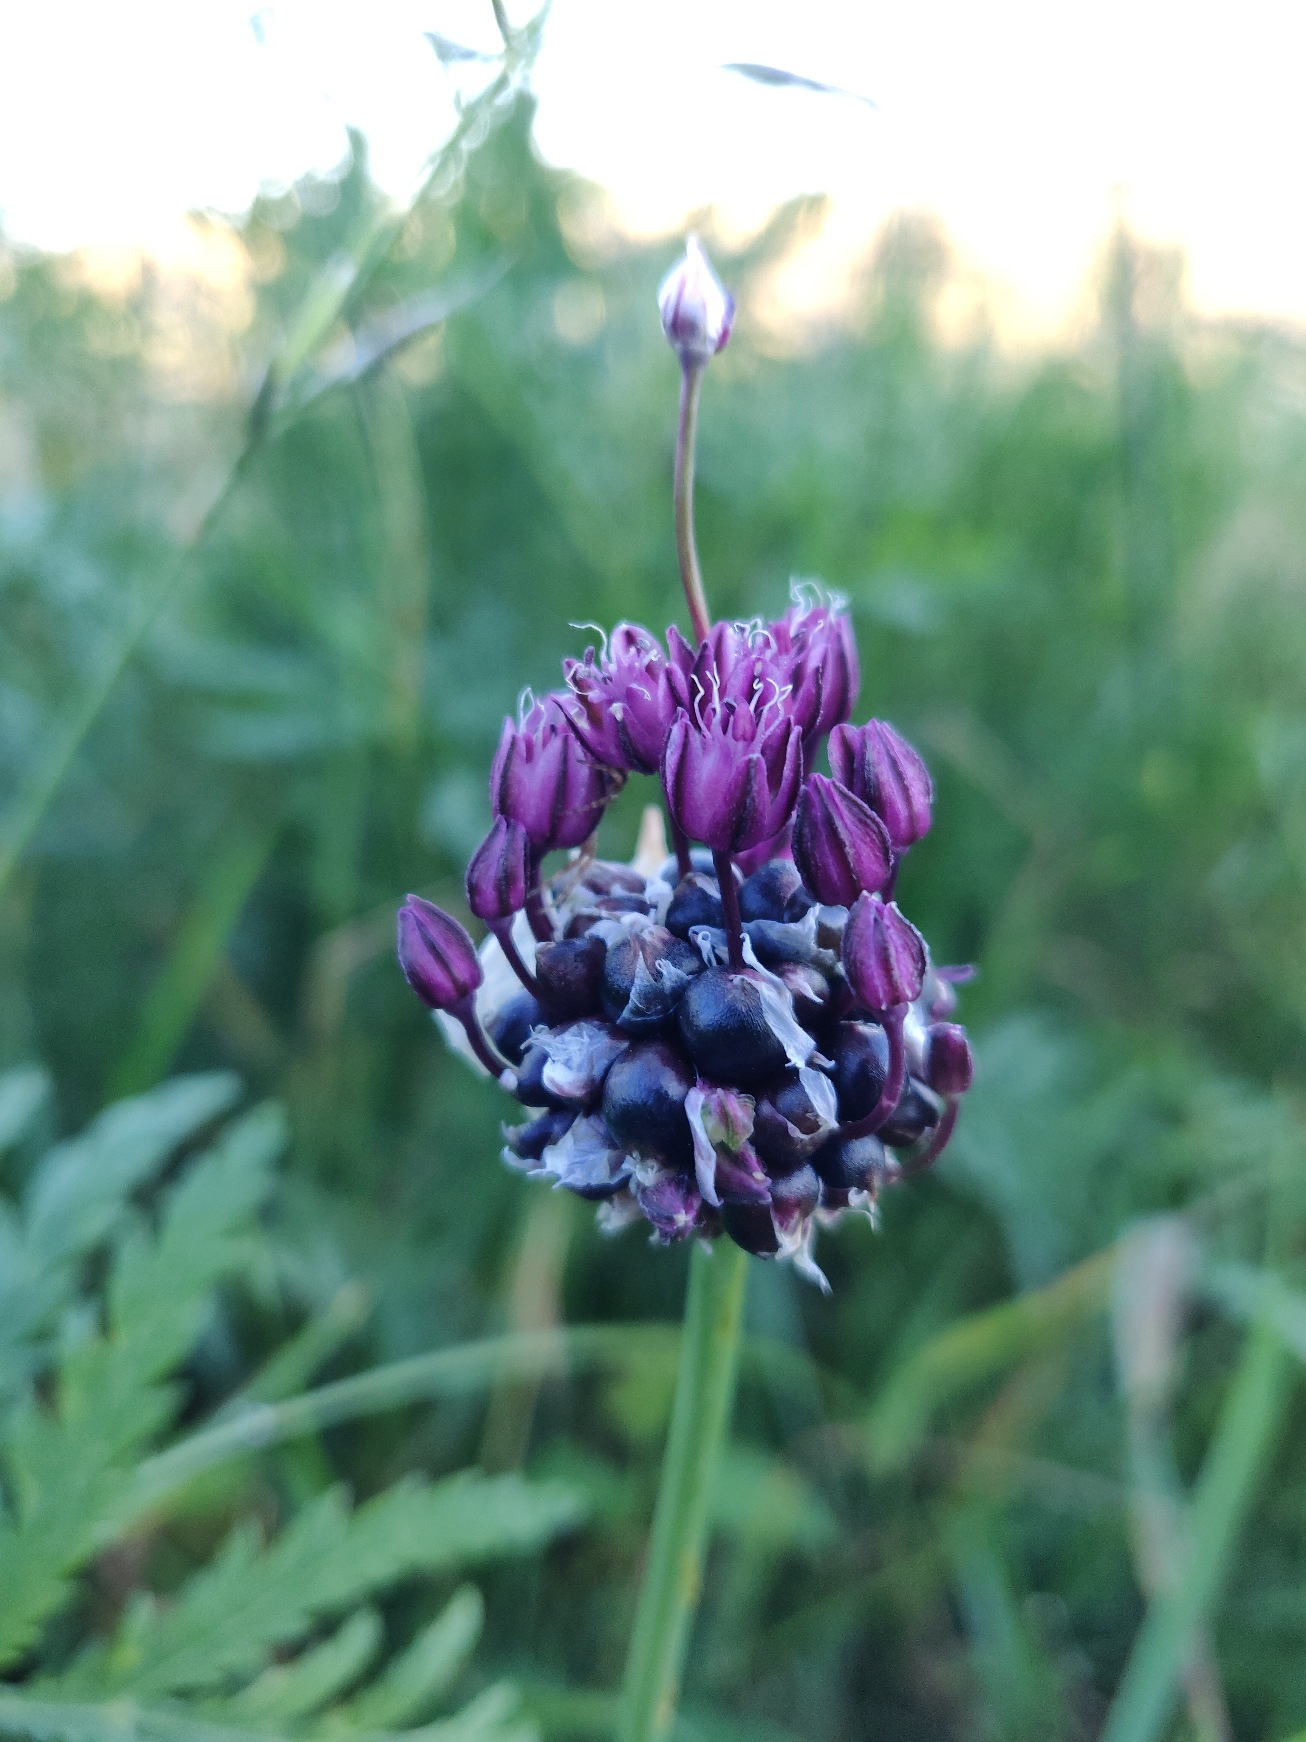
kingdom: Plantae
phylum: Tracheophyta
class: Liliopsida
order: Asparagales
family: Amaryllidaceae
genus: Allium
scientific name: Allium scorodoprasum
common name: Skov-løg
